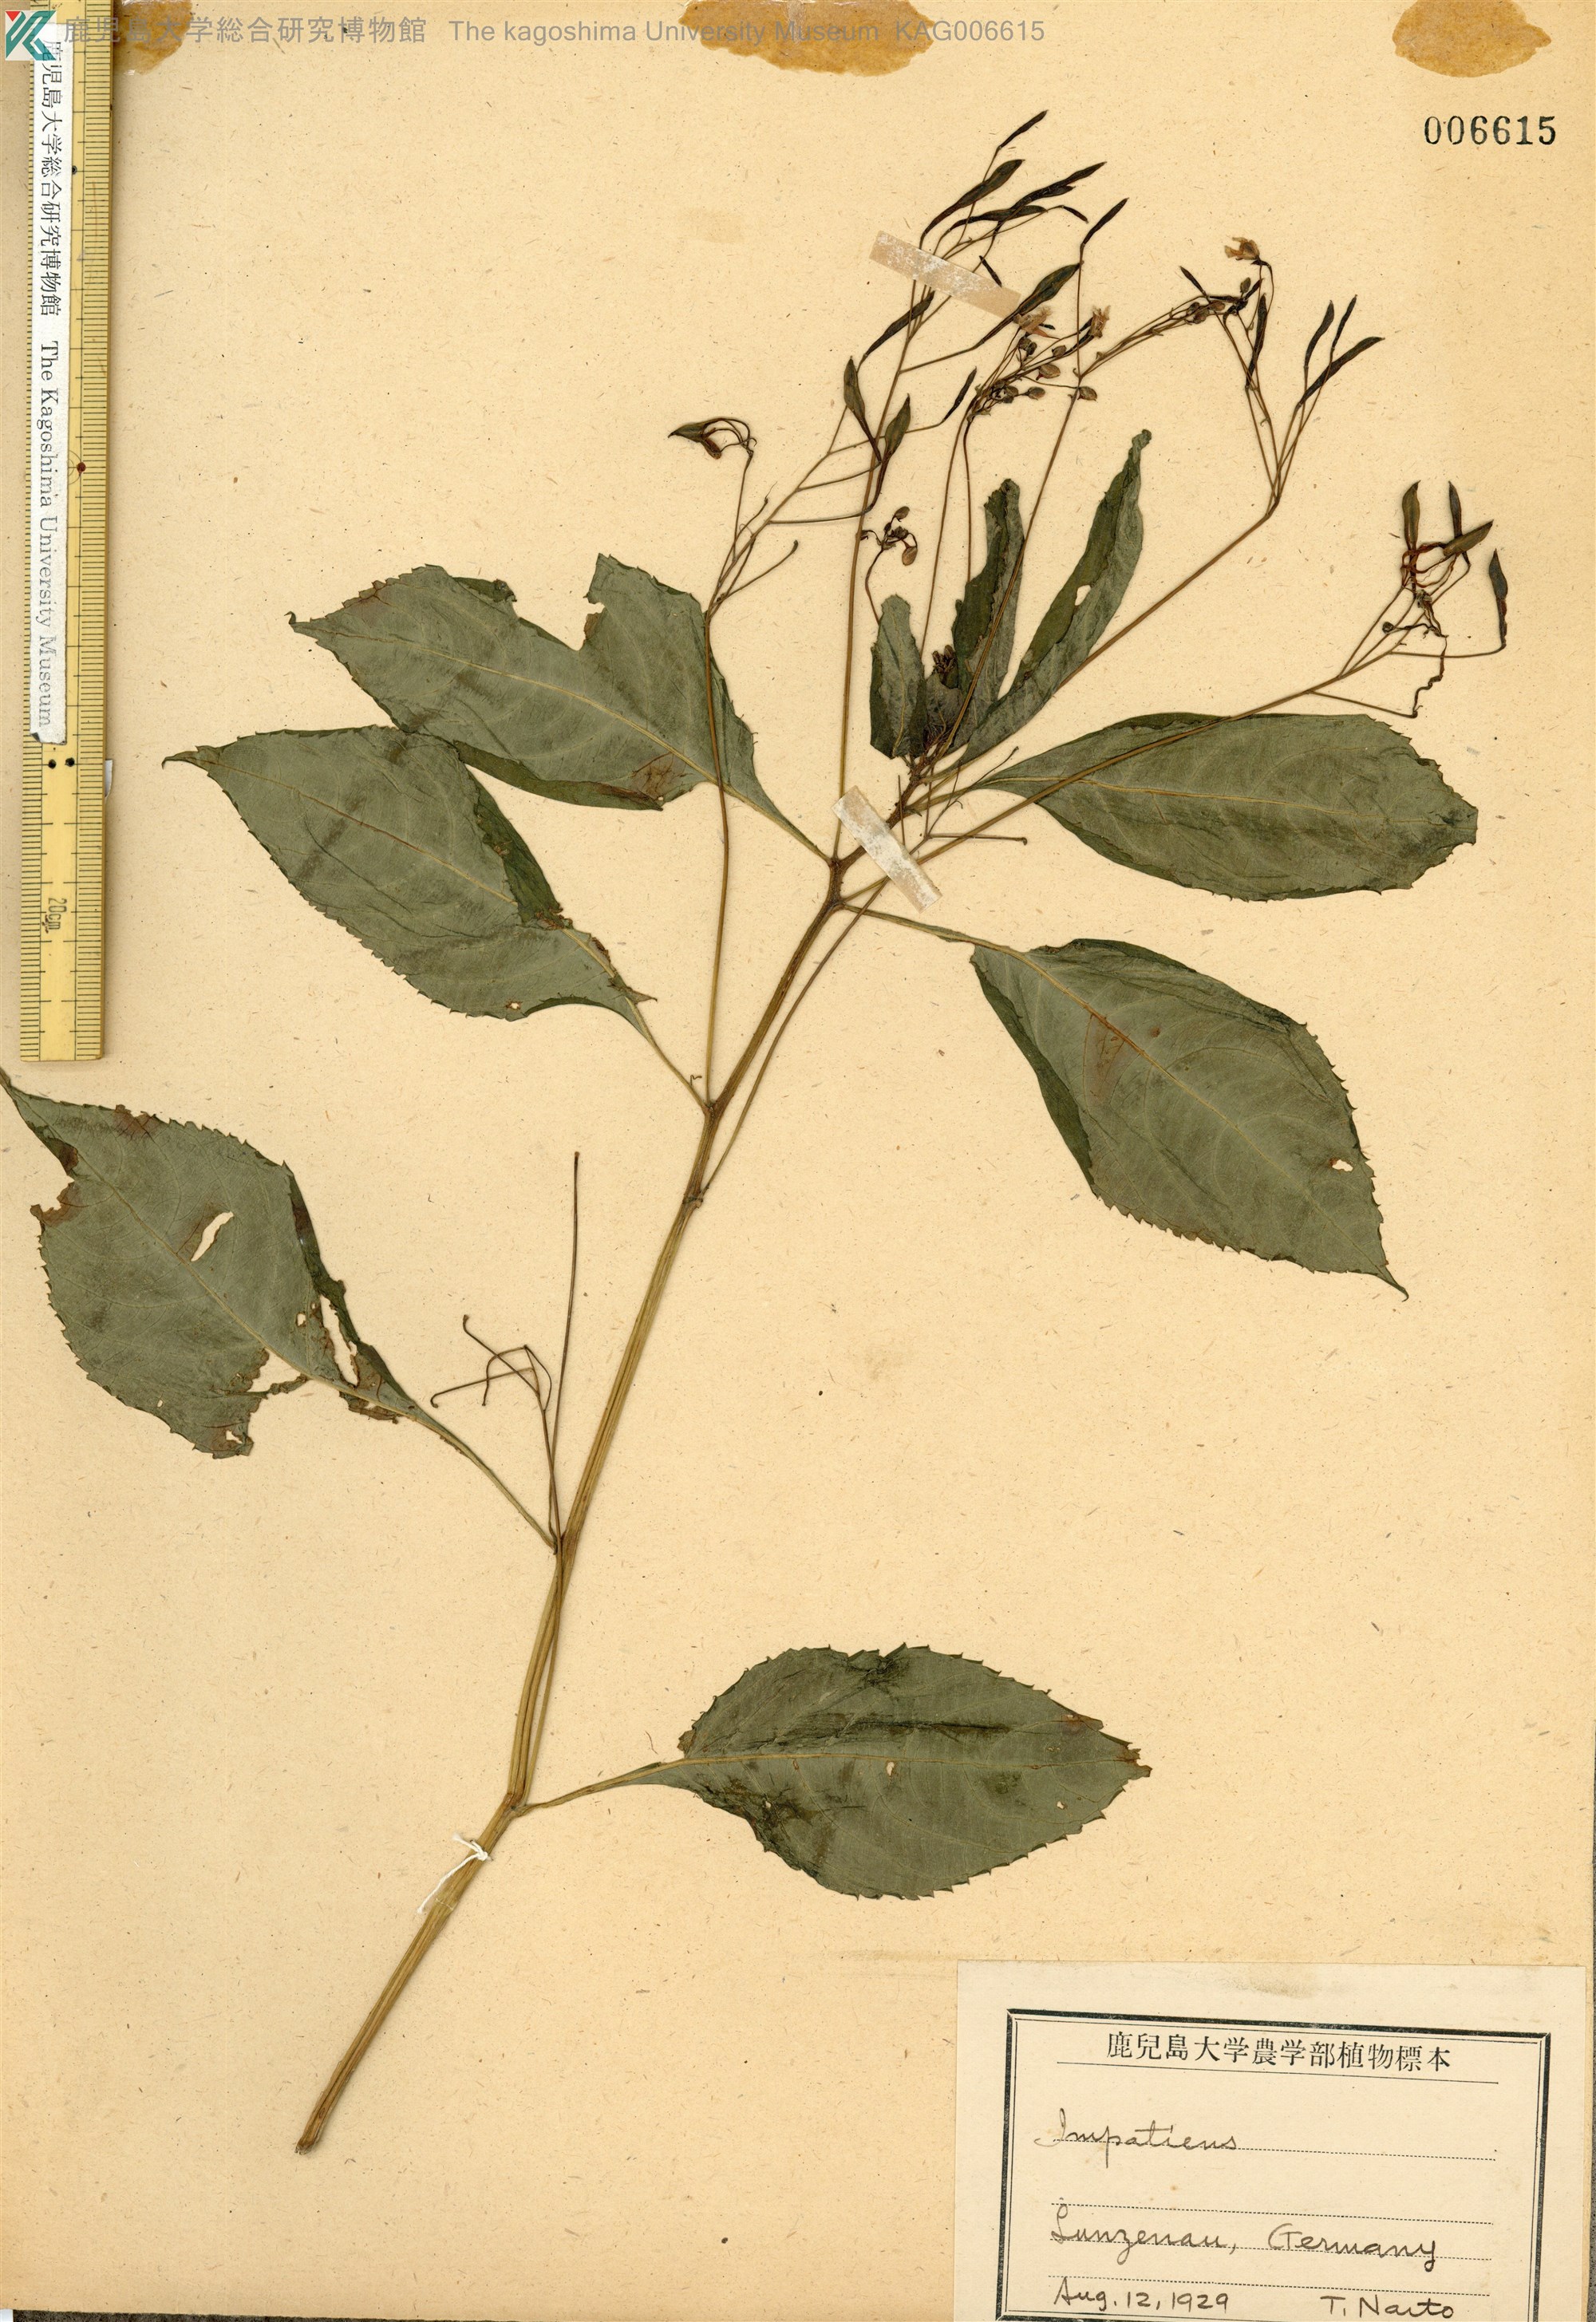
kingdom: Plantae
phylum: Tracheophyta
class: Magnoliopsida
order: Ericales
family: Balsaminaceae
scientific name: Balsaminaceae
